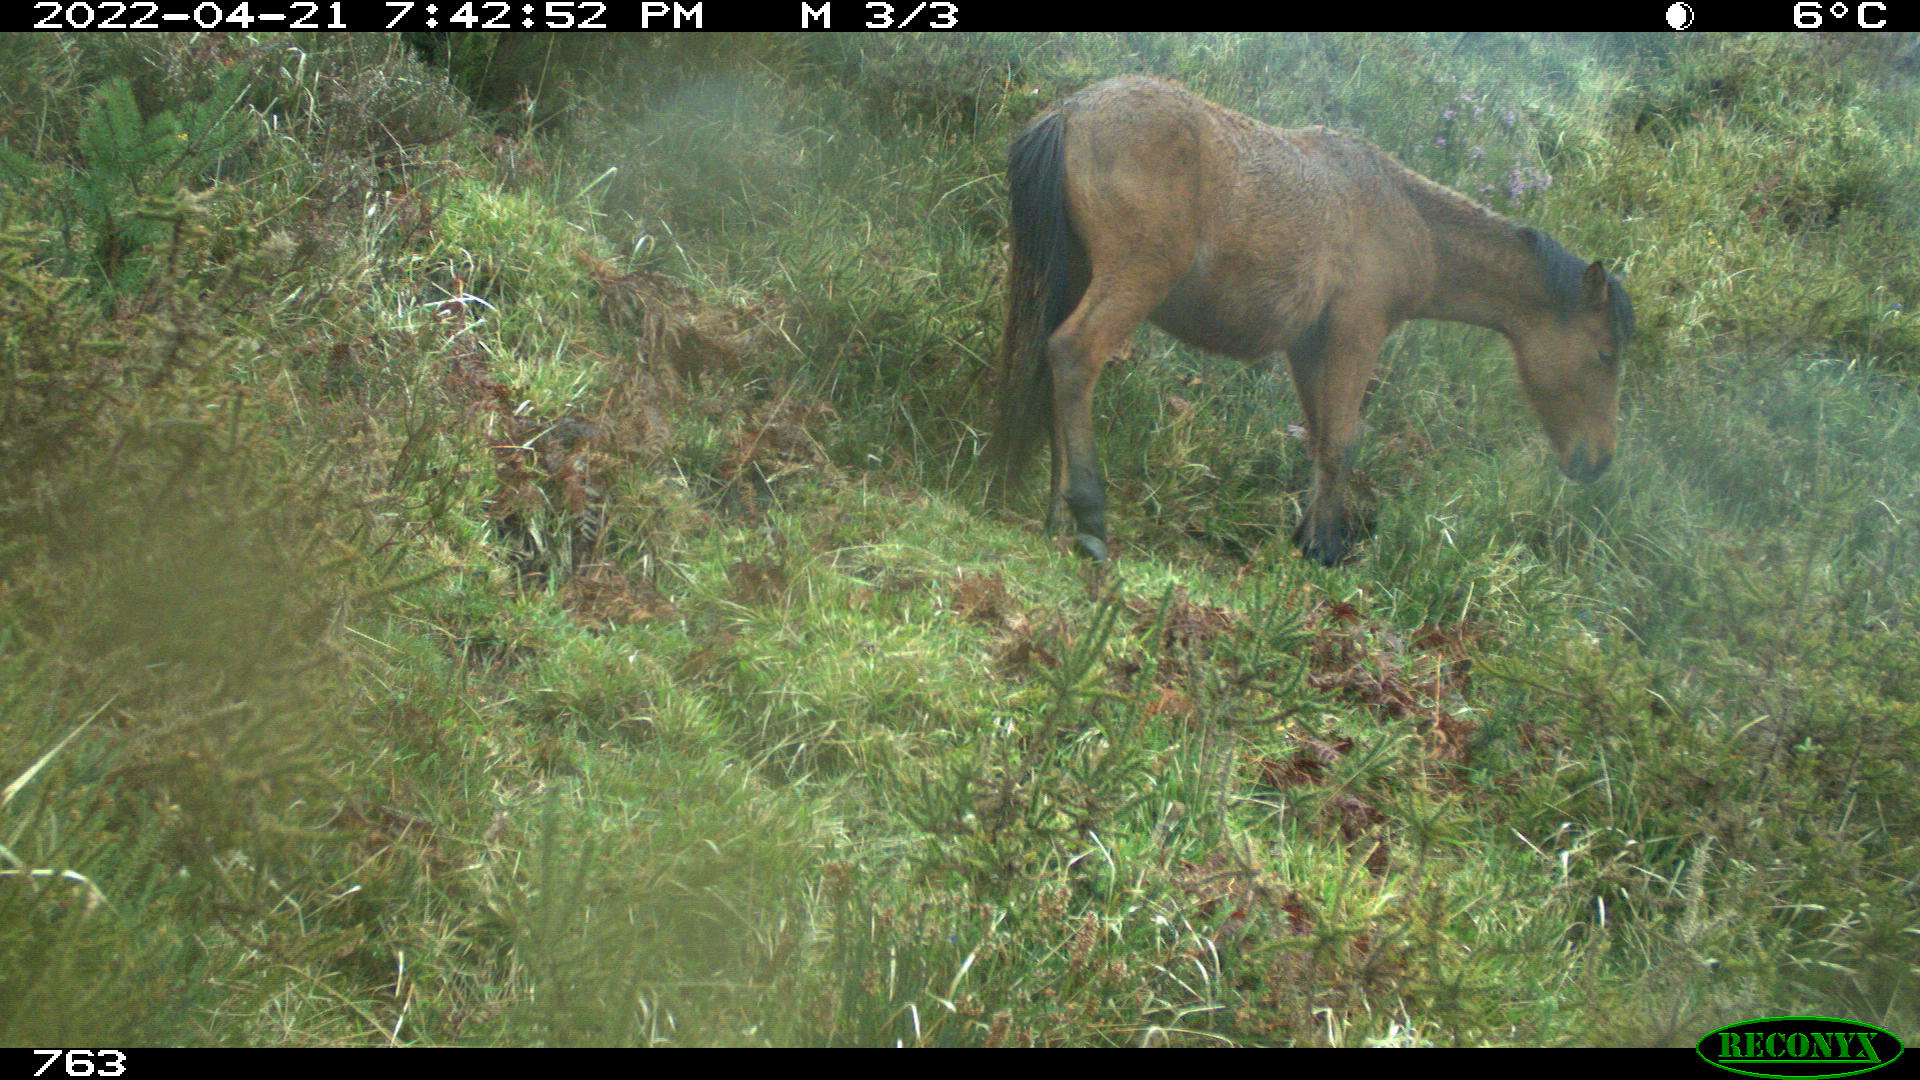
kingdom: Animalia
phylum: Chordata
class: Mammalia
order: Perissodactyla
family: Equidae
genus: Equus
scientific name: Equus caballus
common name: Horse
